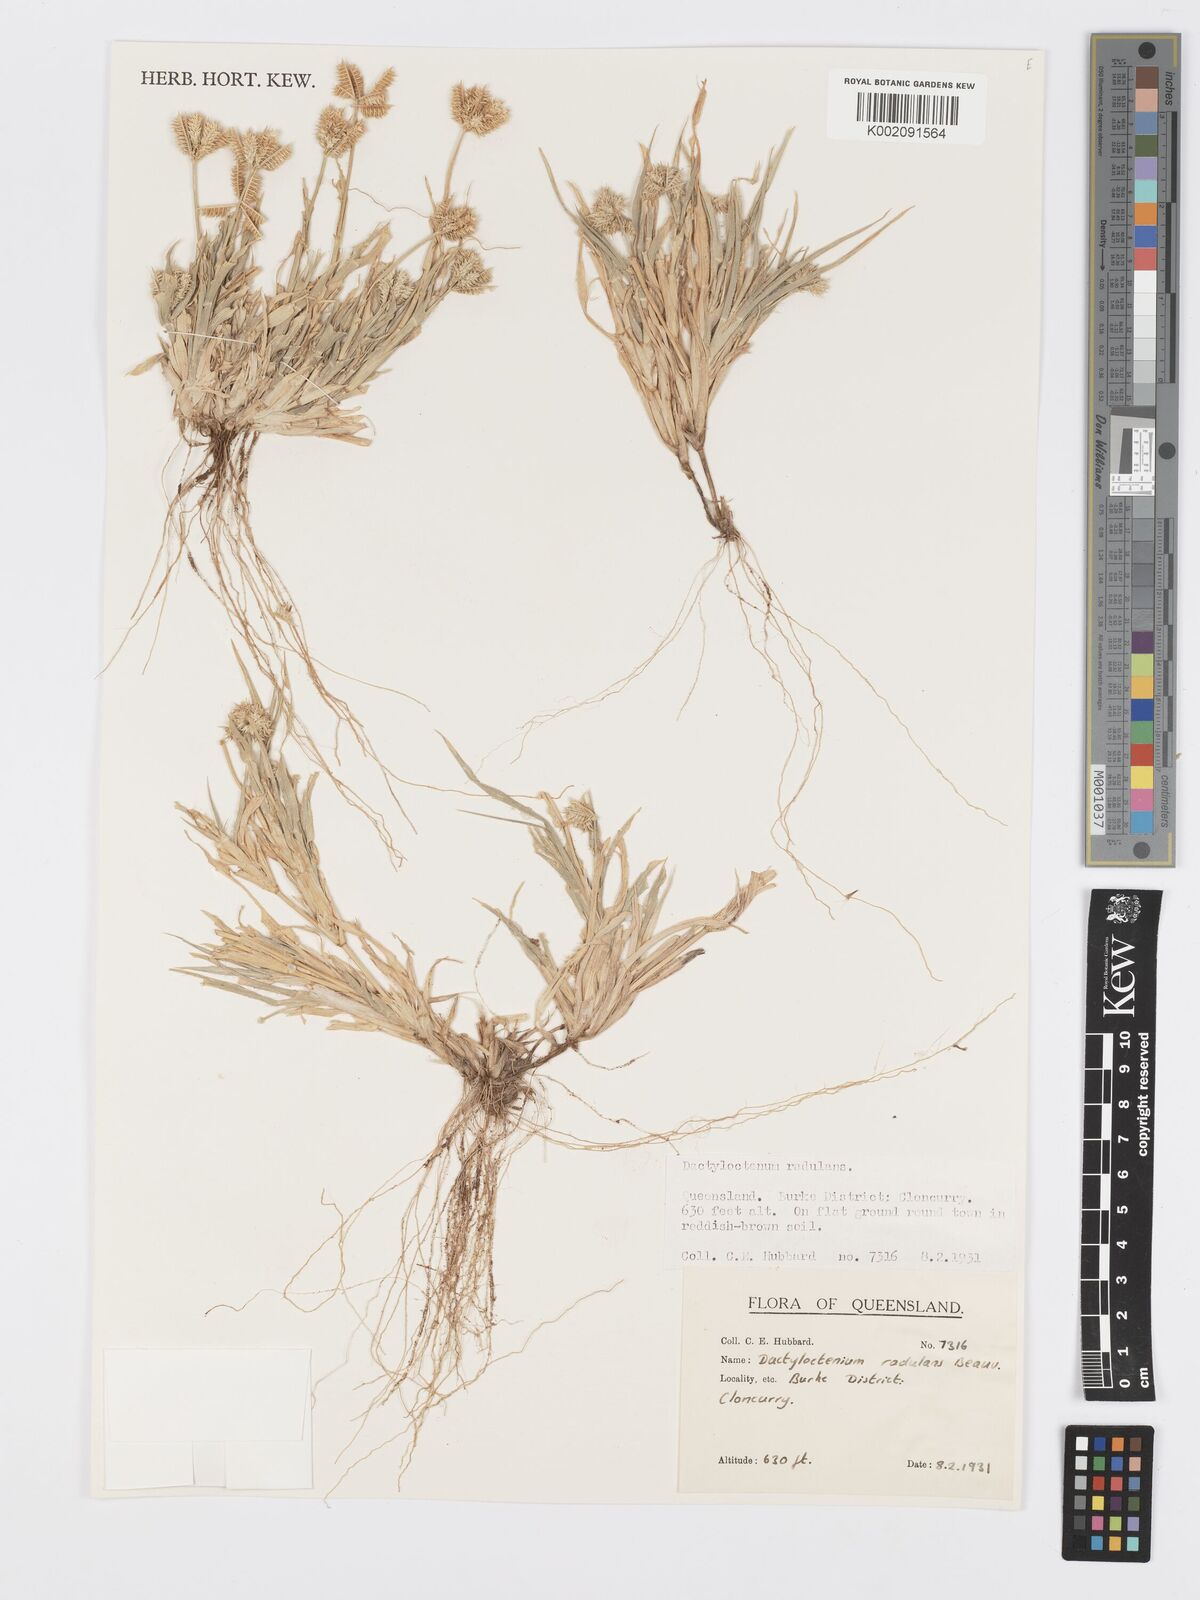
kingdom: Plantae
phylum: Tracheophyta
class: Liliopsida
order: Poales
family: Poaceae
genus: Dactyloctenium
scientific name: Dactyloctenium radulans
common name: Button-grass
